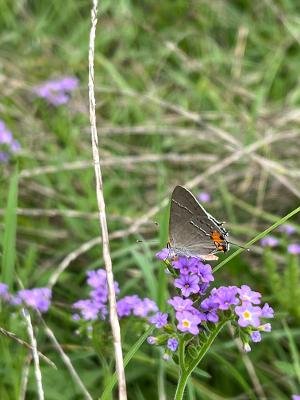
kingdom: Animalia
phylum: Arthropoda
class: Insecta
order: Lepidoptera
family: Lycaenidae
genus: Strymon
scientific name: Strymon melinus
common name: Gray Hairstreak
